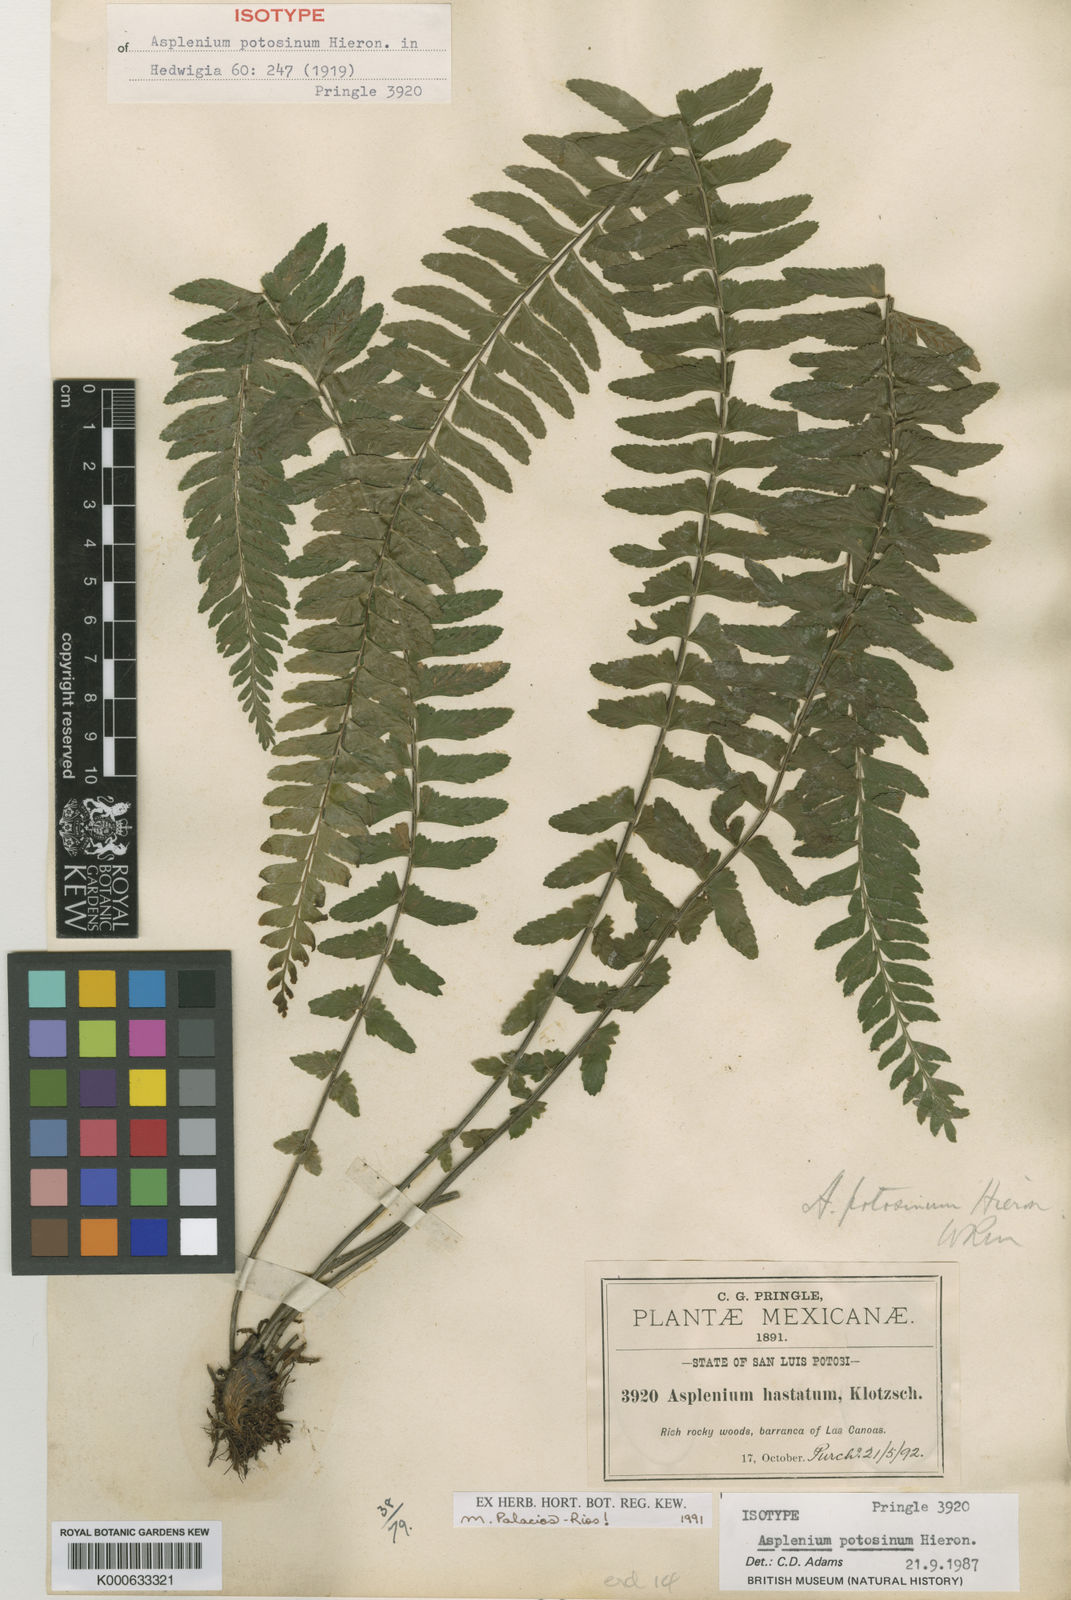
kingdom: Plantae
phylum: Tracheophyta
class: Polypodiopsida
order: Polypodiales
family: Aspleniaceae
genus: Asplenium
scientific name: Asplenium potosinum
